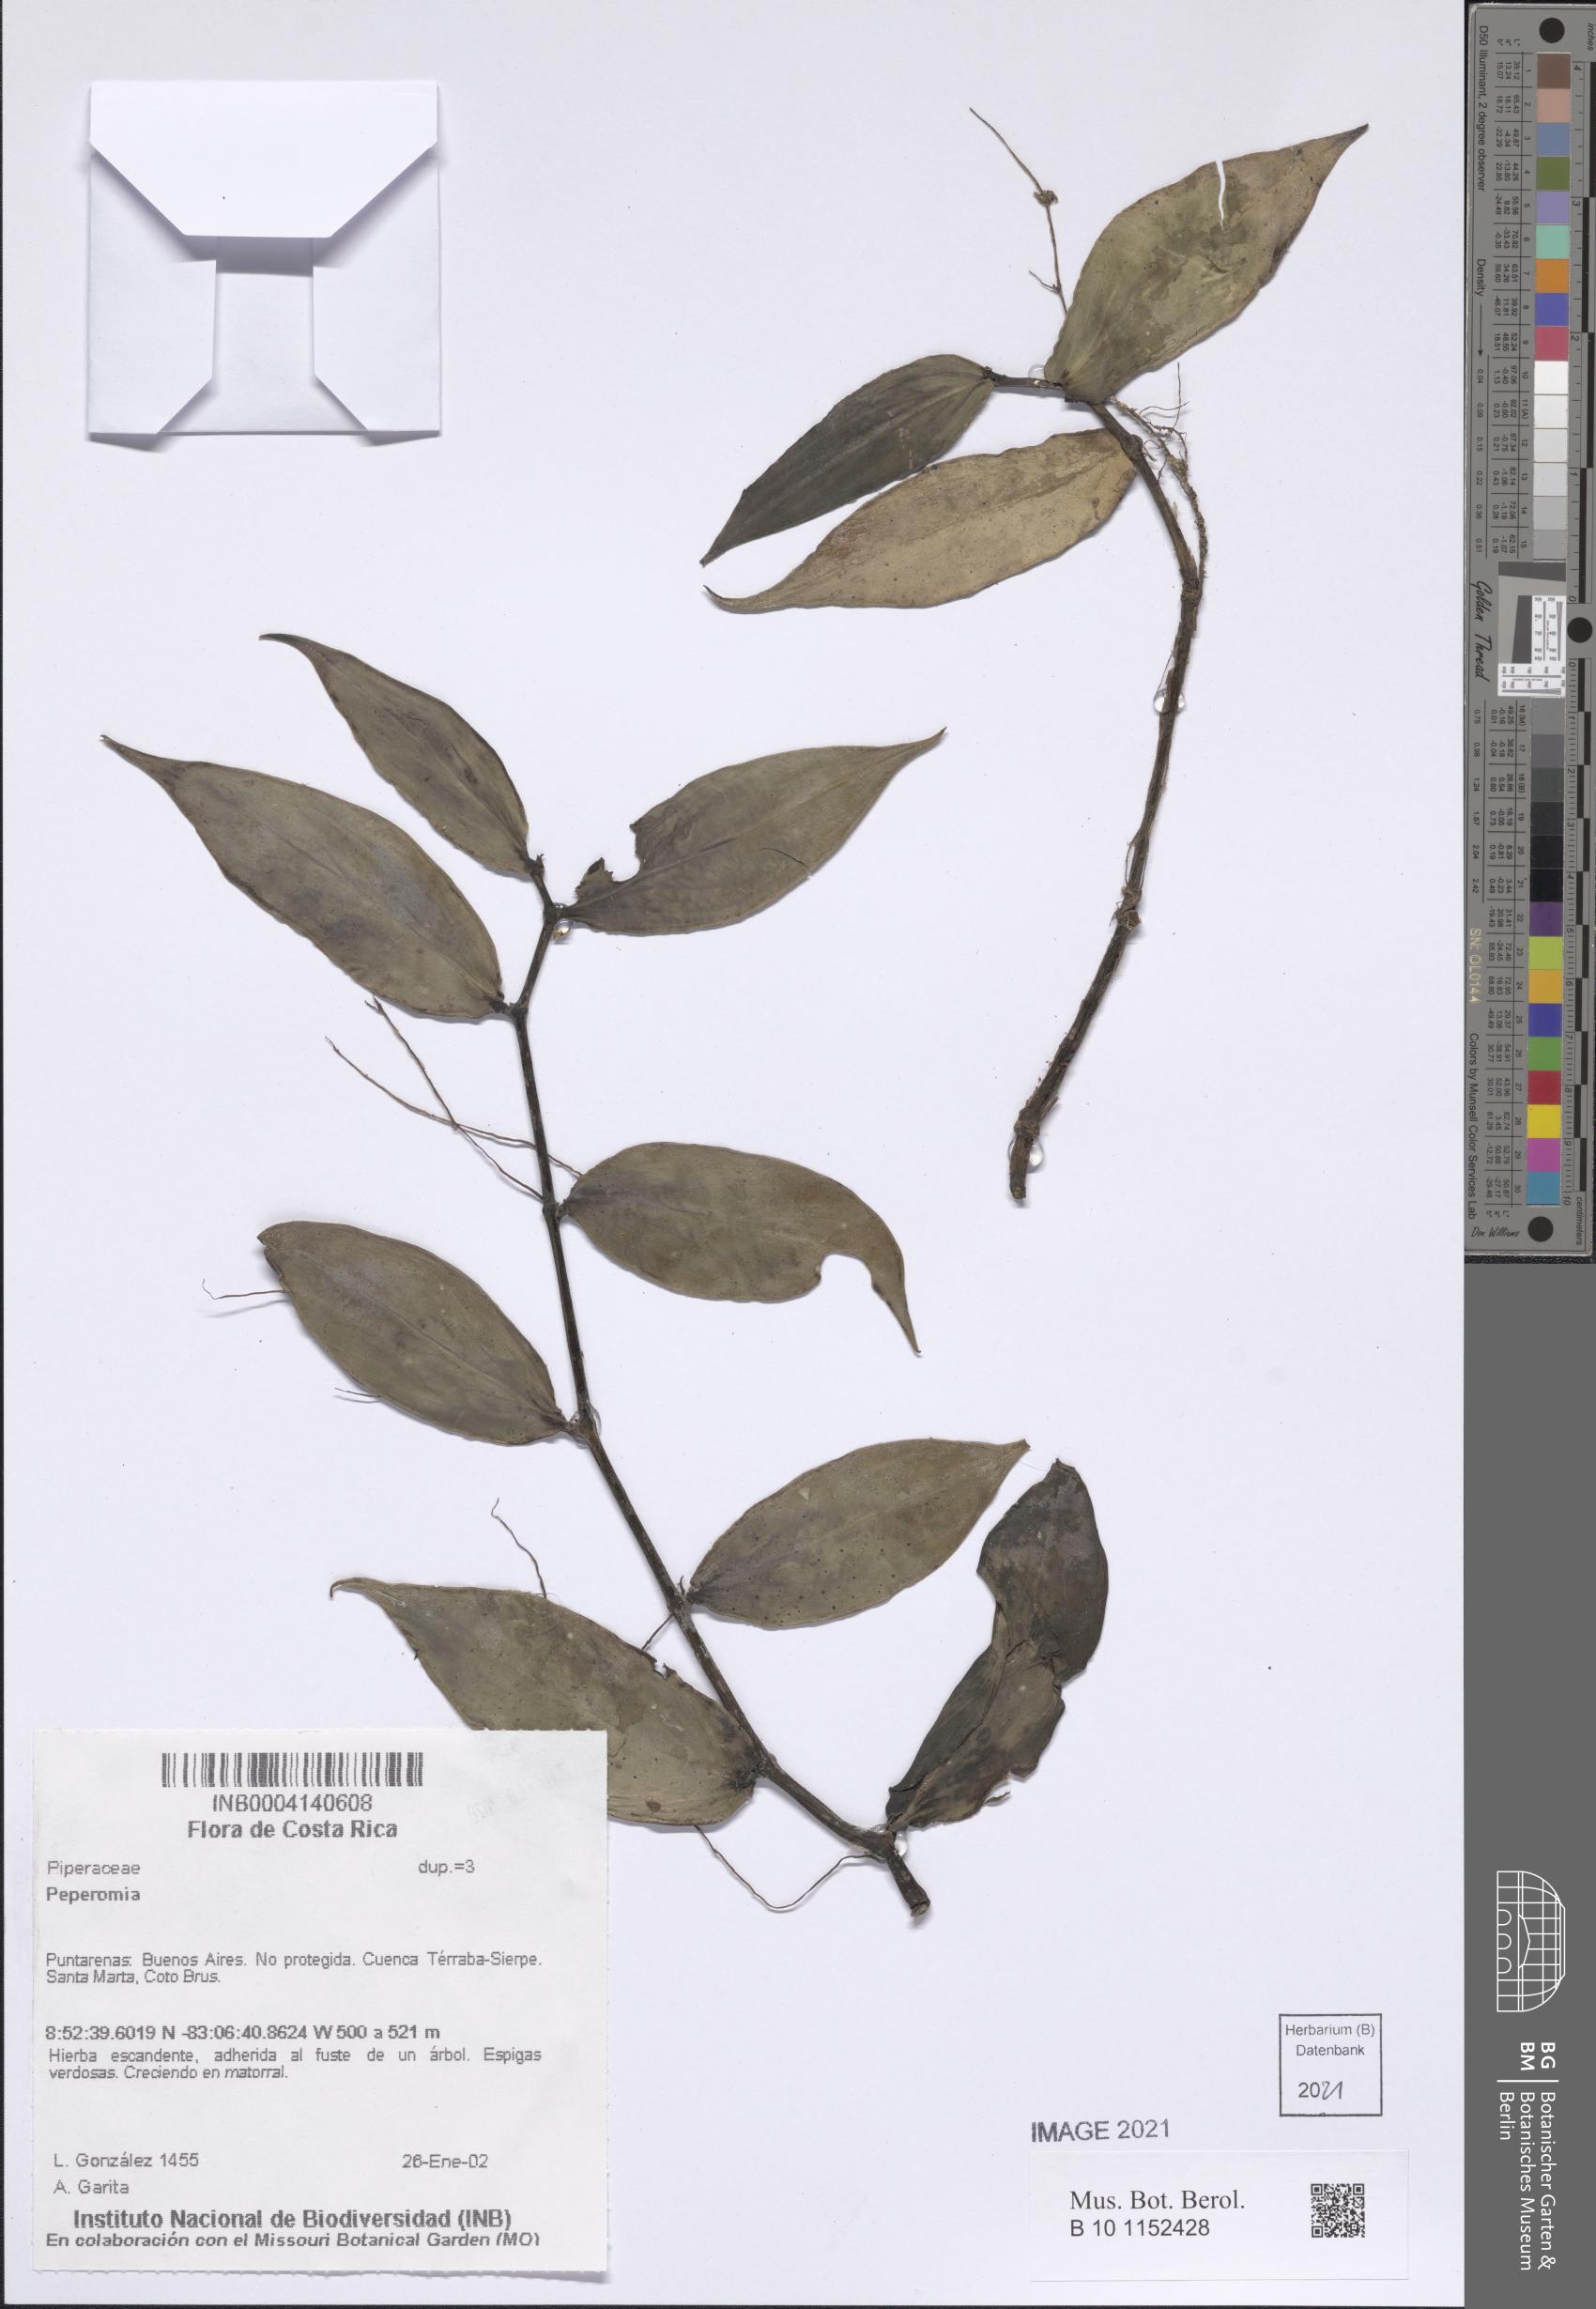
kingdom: Plantae
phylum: Tracheophyta
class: Magnoliopsida
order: Piperales
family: Piperaceae
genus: Peperomia
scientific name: Peperomia
